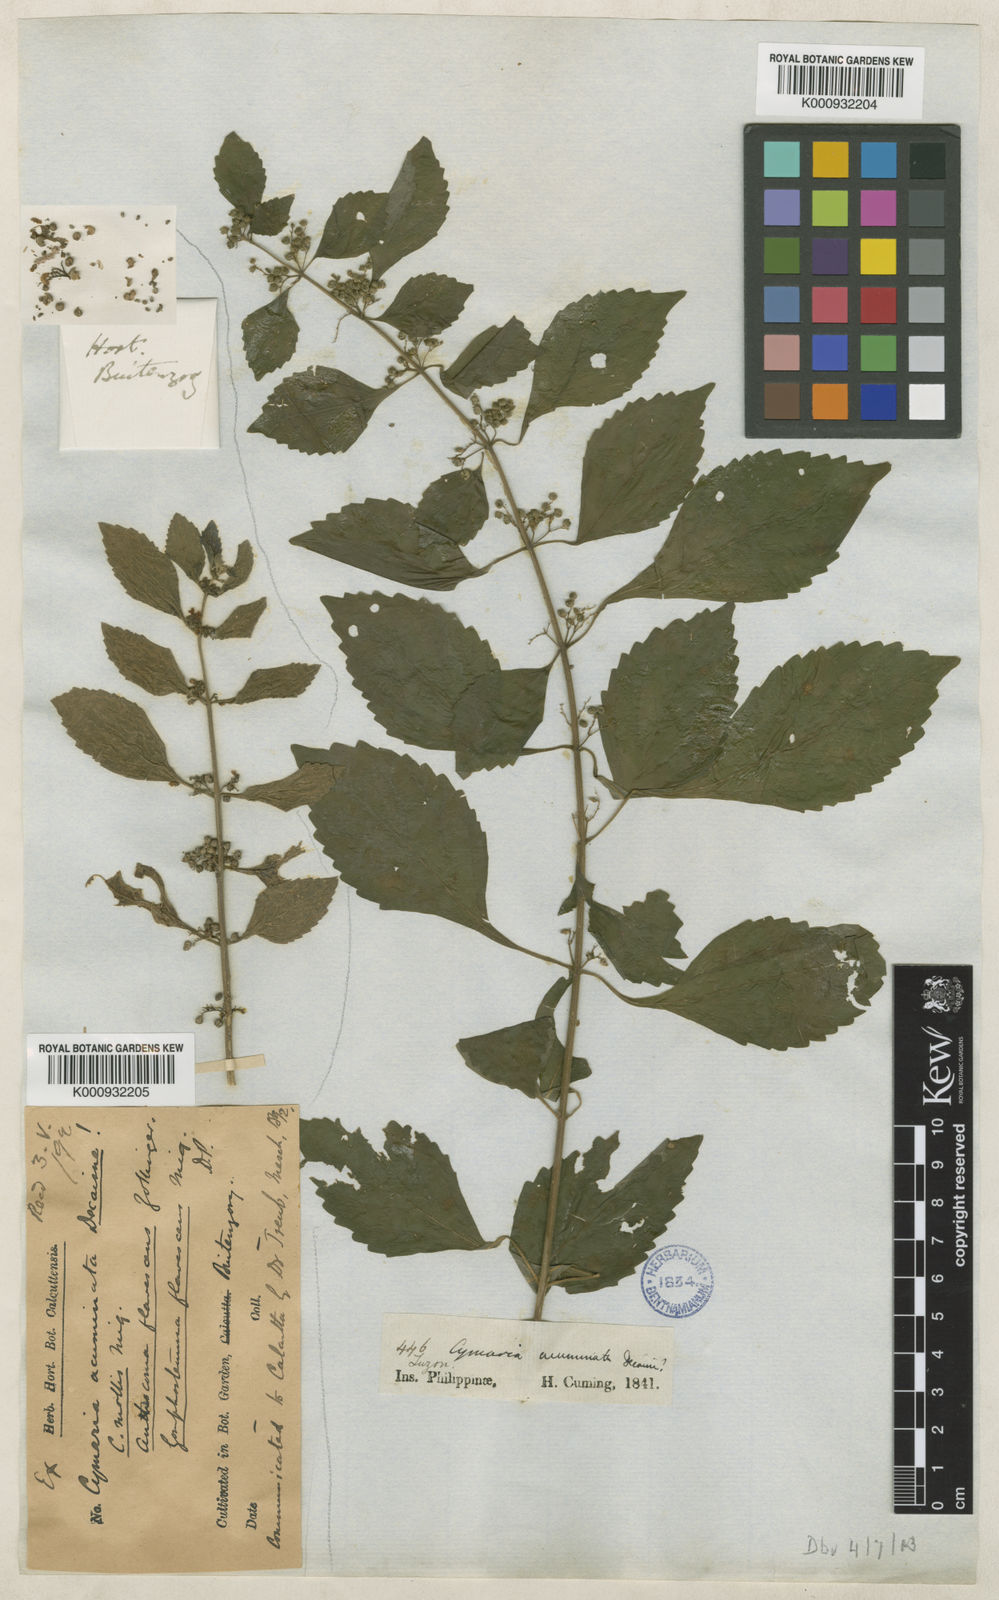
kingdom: Plantae
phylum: Tracheophyta
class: Magnoliopsida
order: Lamiales
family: Lamiaceae
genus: Cymaria
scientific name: Cymaria dichotoma
